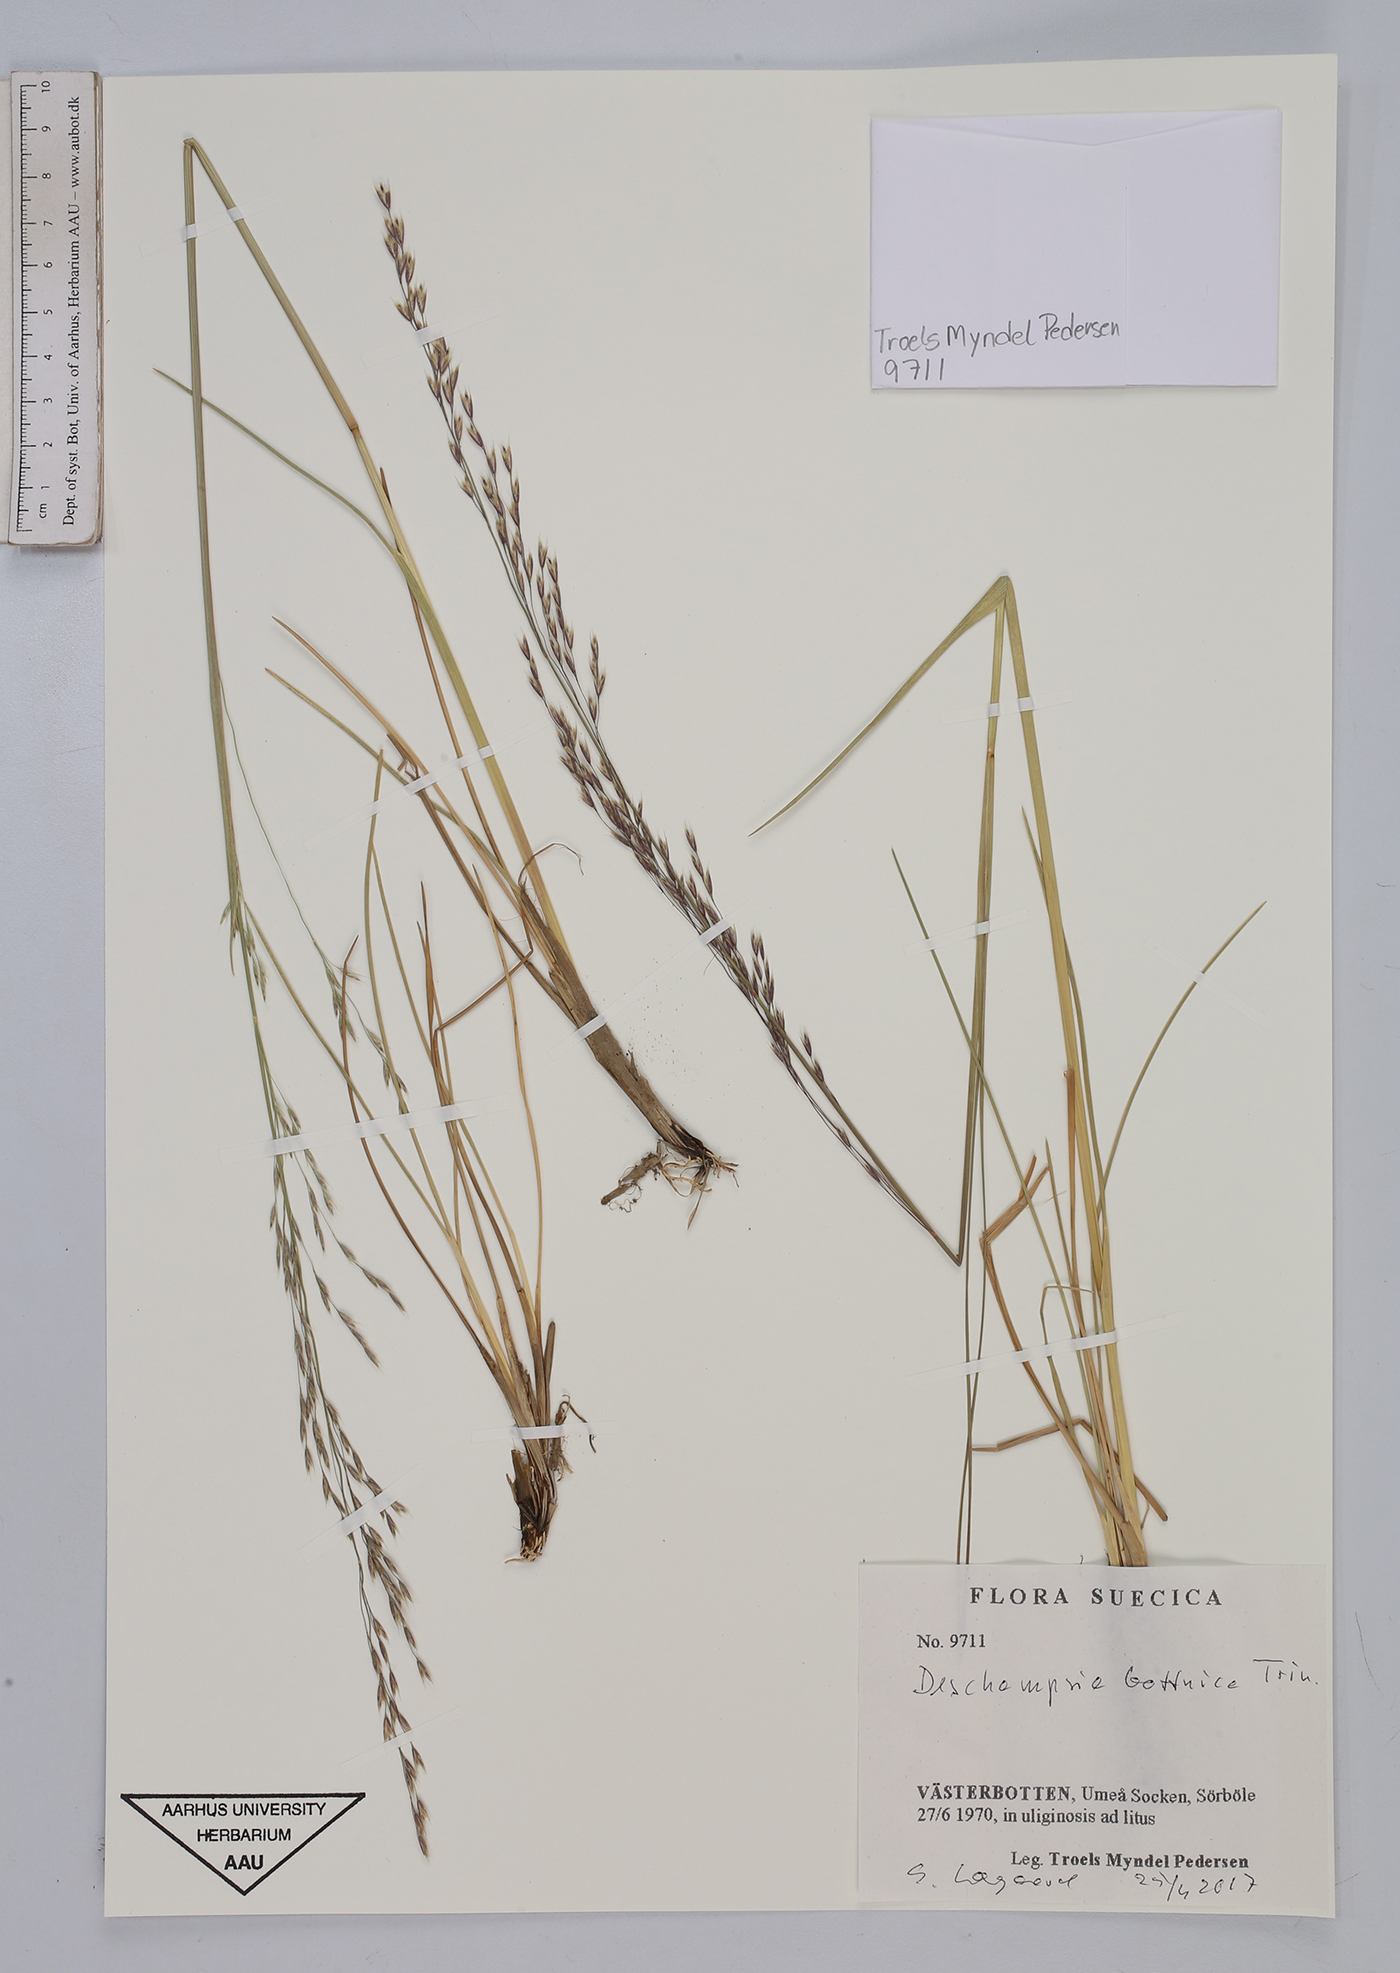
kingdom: Plantae
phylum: Tracheophyta
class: Liliopsida
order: Poales
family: Poaceae
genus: Deschampsia
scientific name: Deschampsia cespitosa
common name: Tufted hair-grass
